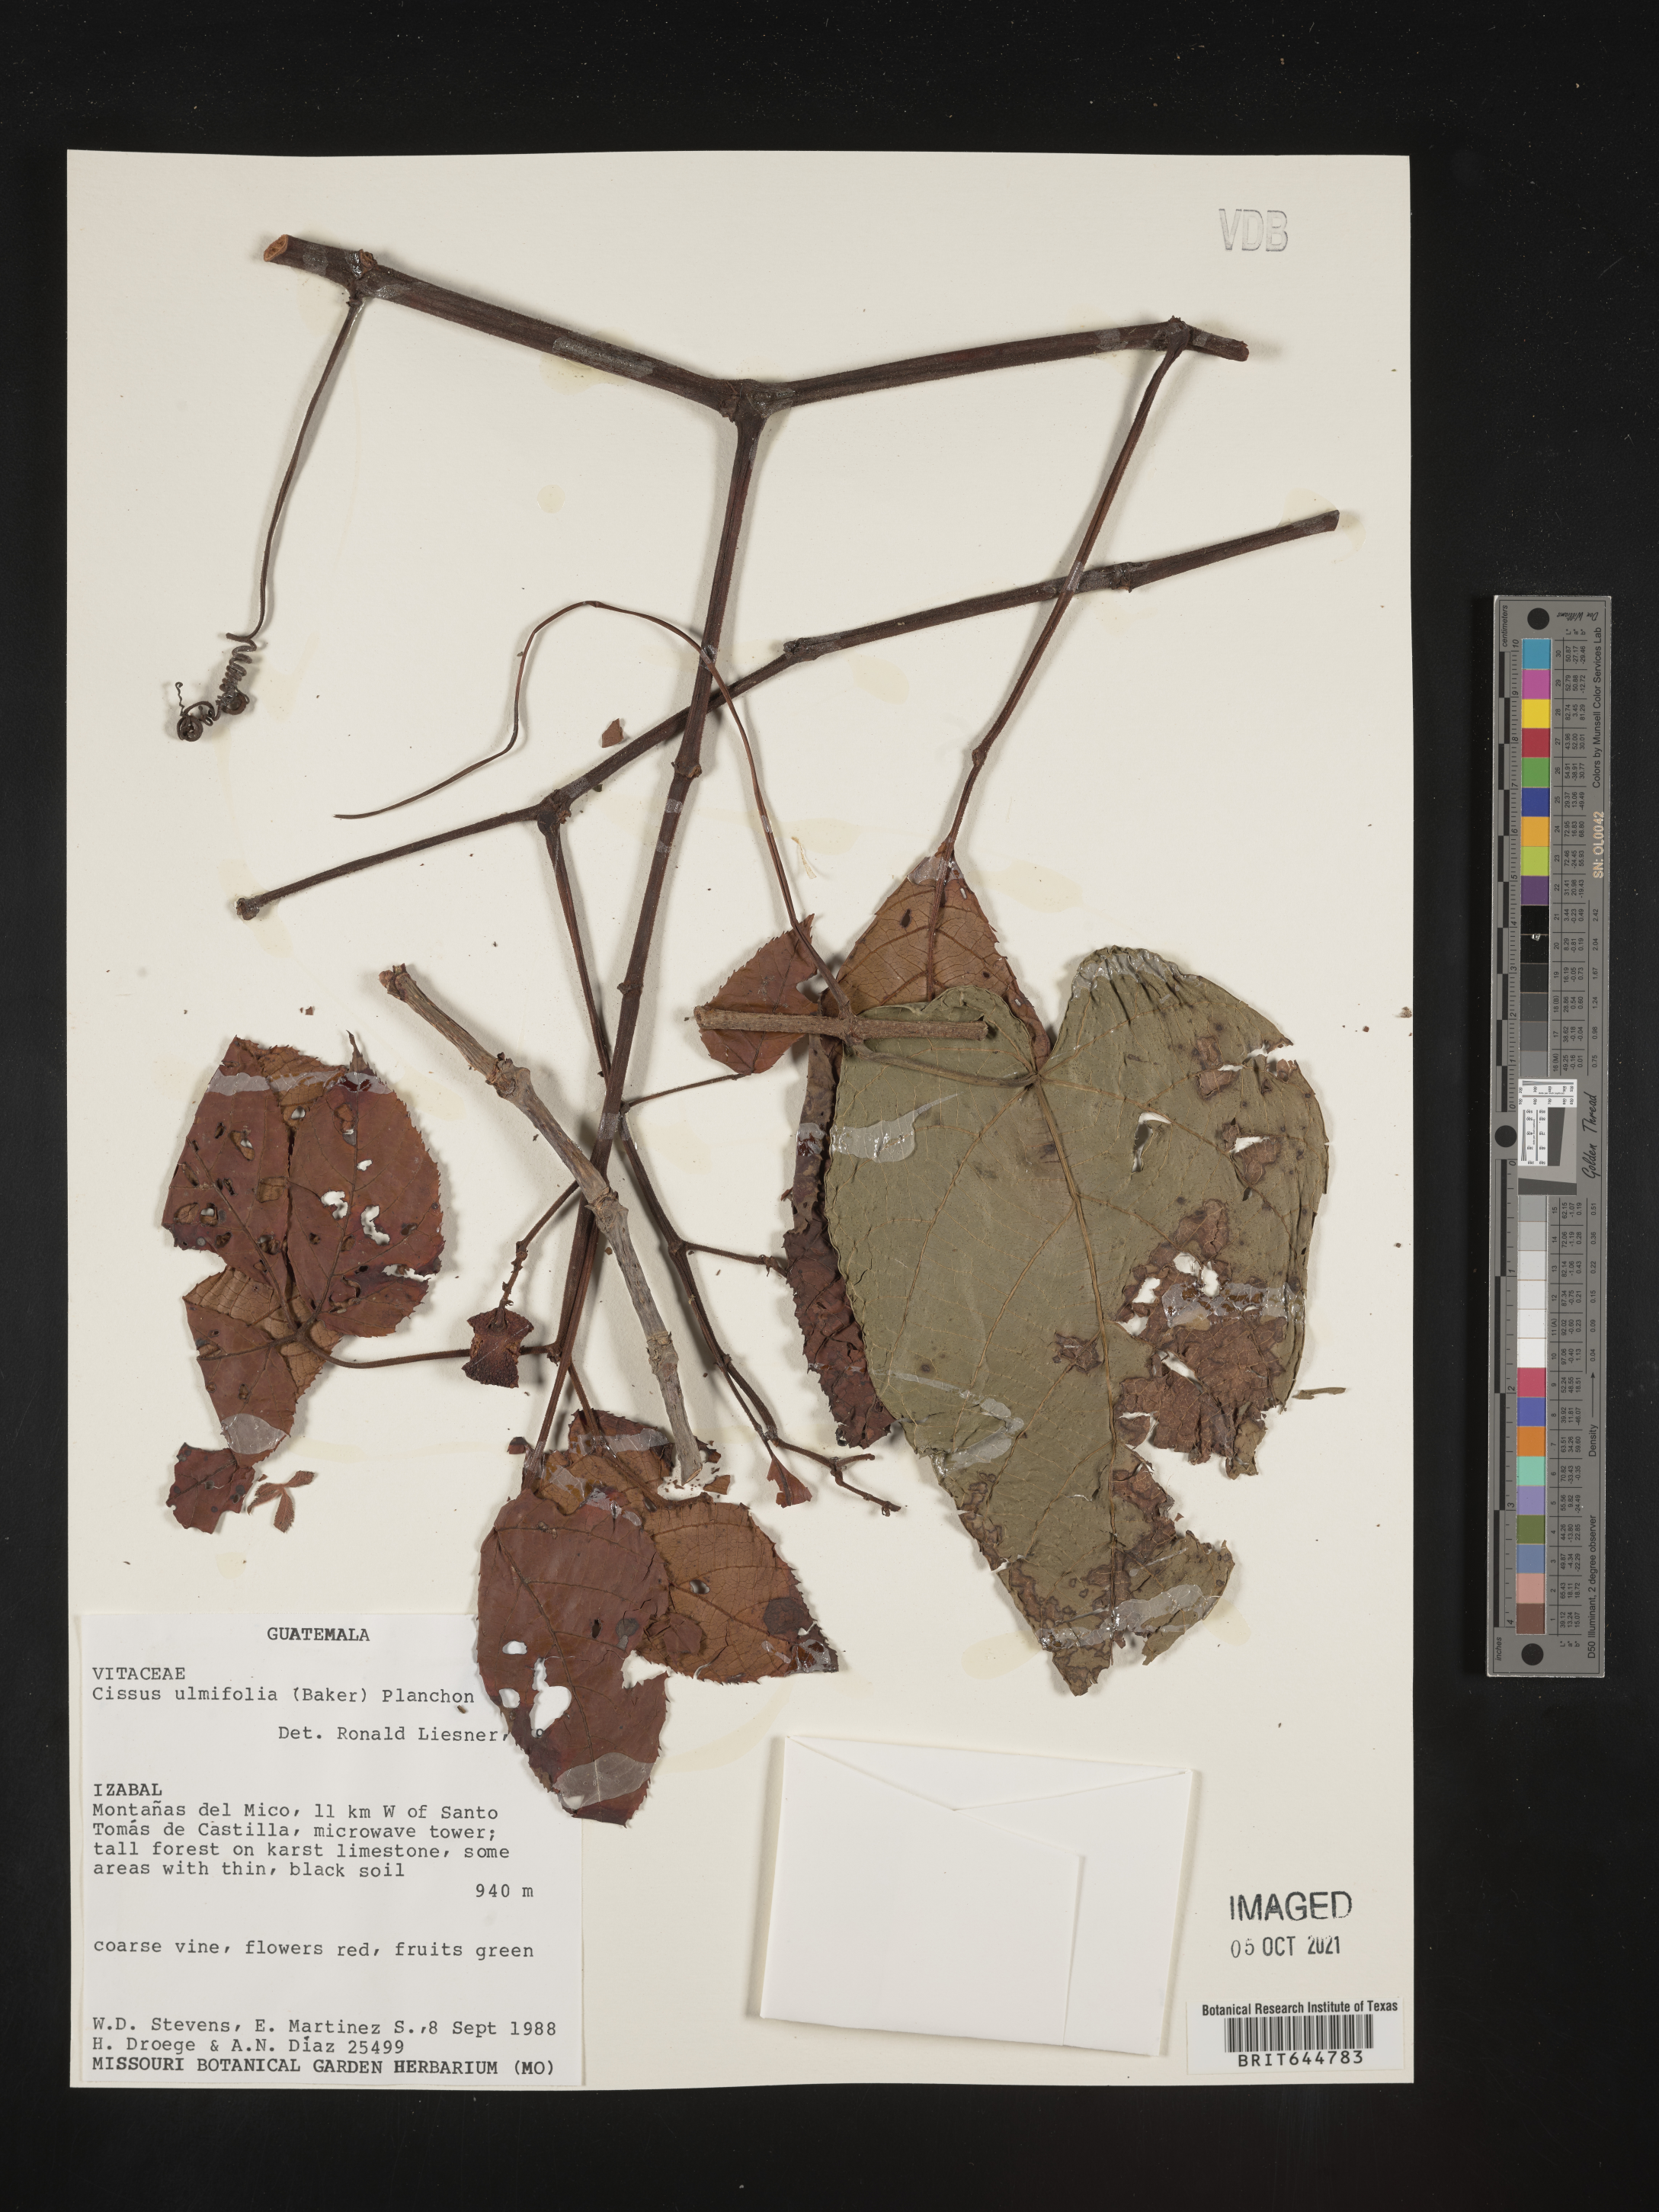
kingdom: Plantae
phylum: Tracheophyta
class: Magnoliopsida
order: Vitales
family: Vitaceae
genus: Cissus
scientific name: Cissus
